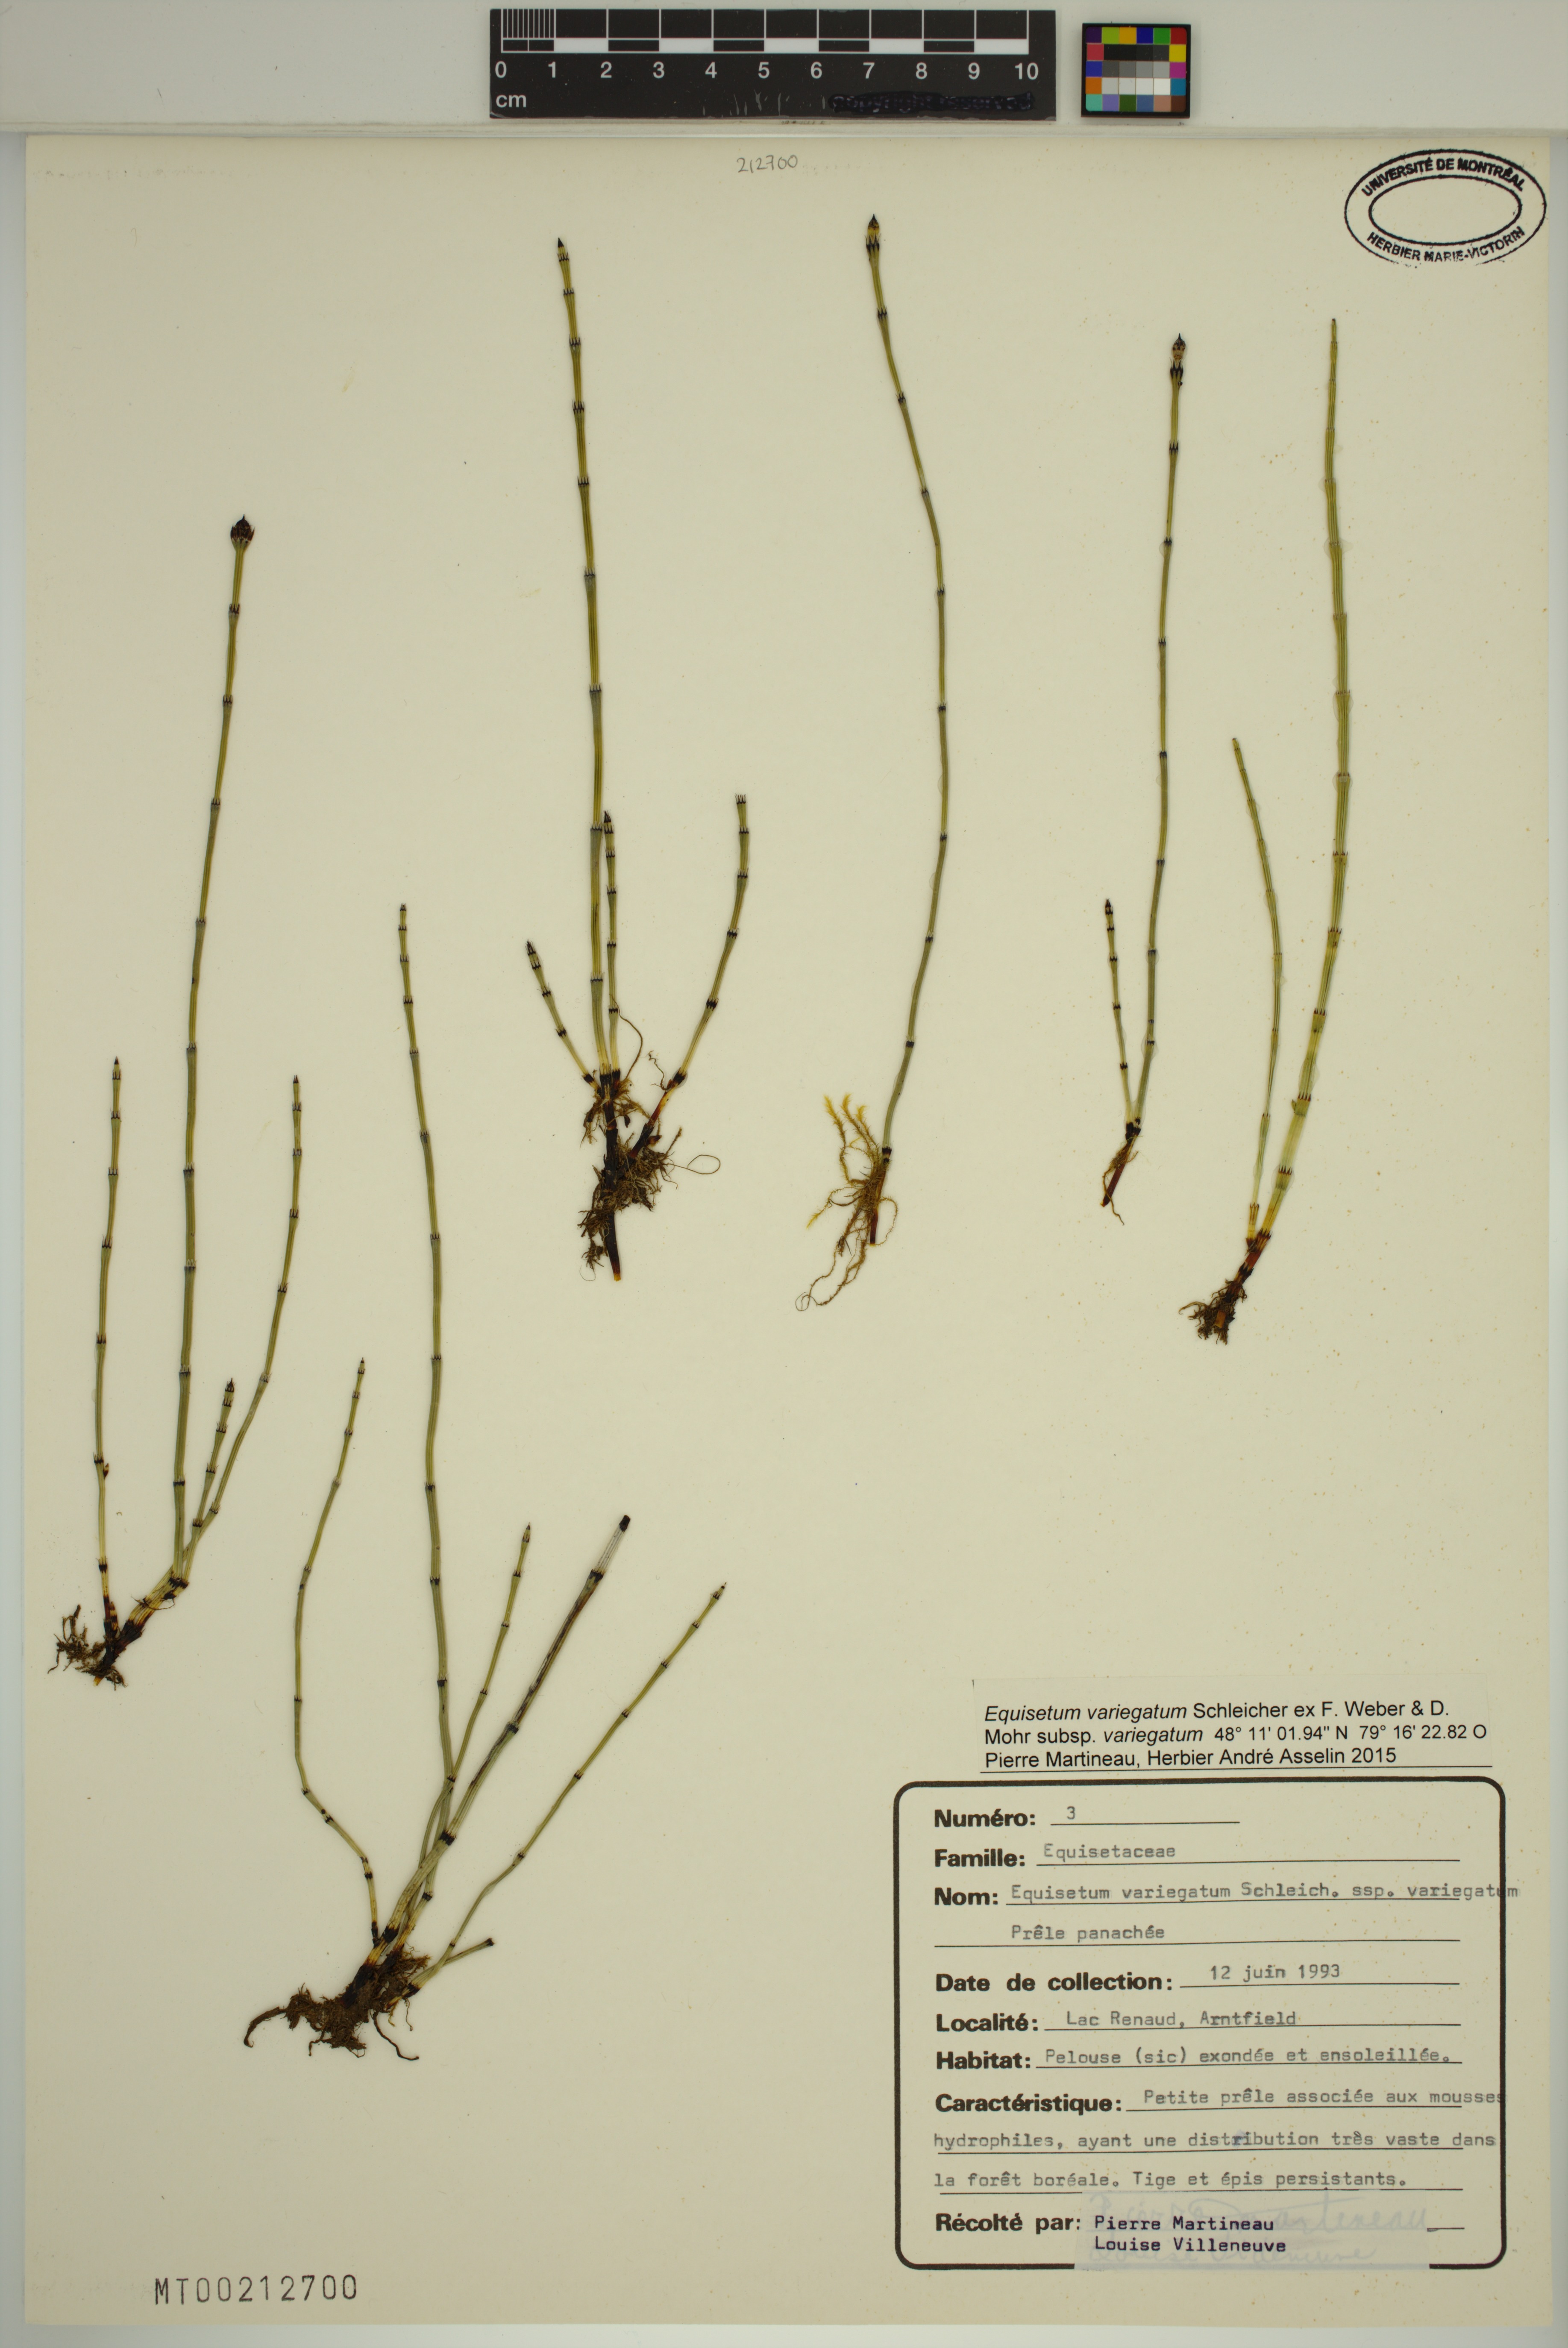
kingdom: Plantae
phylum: Tracheophyta
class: Polypodiopsida
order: Equisetales
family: Equisetaceae
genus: Equisetum
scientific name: Equisetum variegatum
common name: Variegated horsetail
